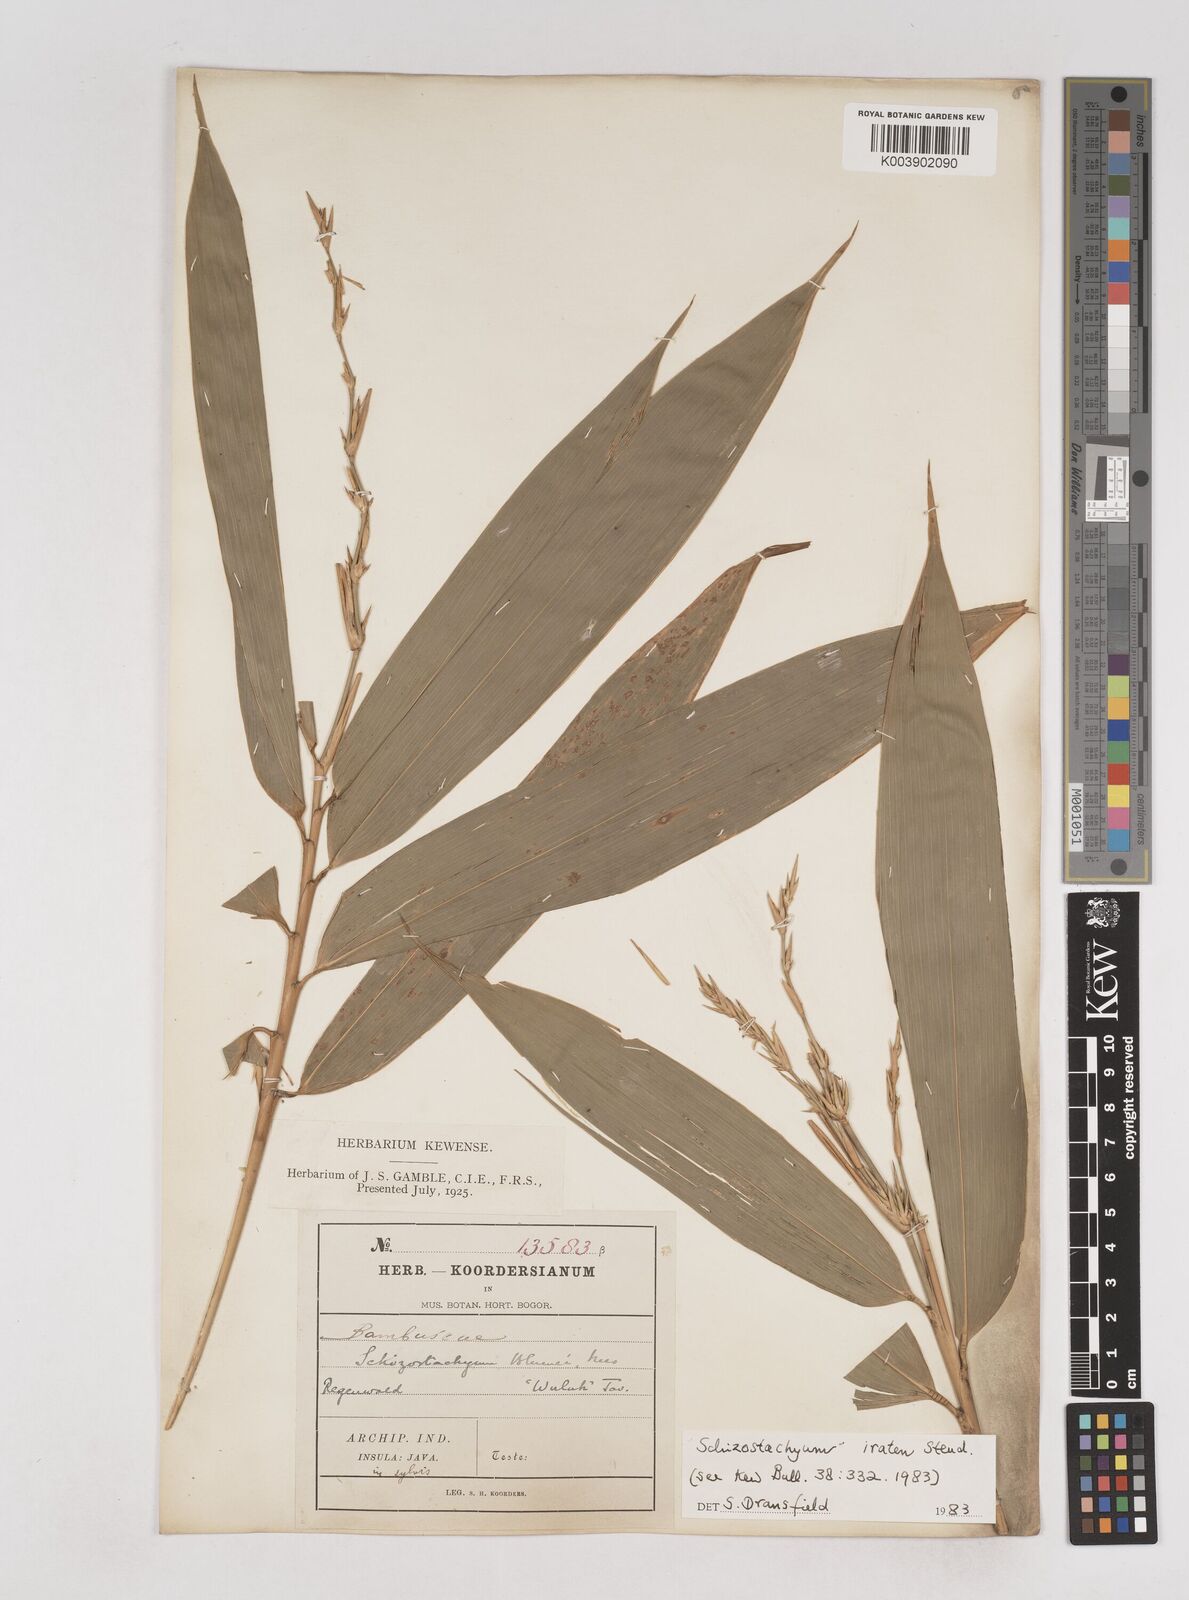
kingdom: Plantae
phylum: Tracheophyta
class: Liliopsida
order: Poales
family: Poaceae
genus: Schizostachyum
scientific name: Schizostachyum iraten
